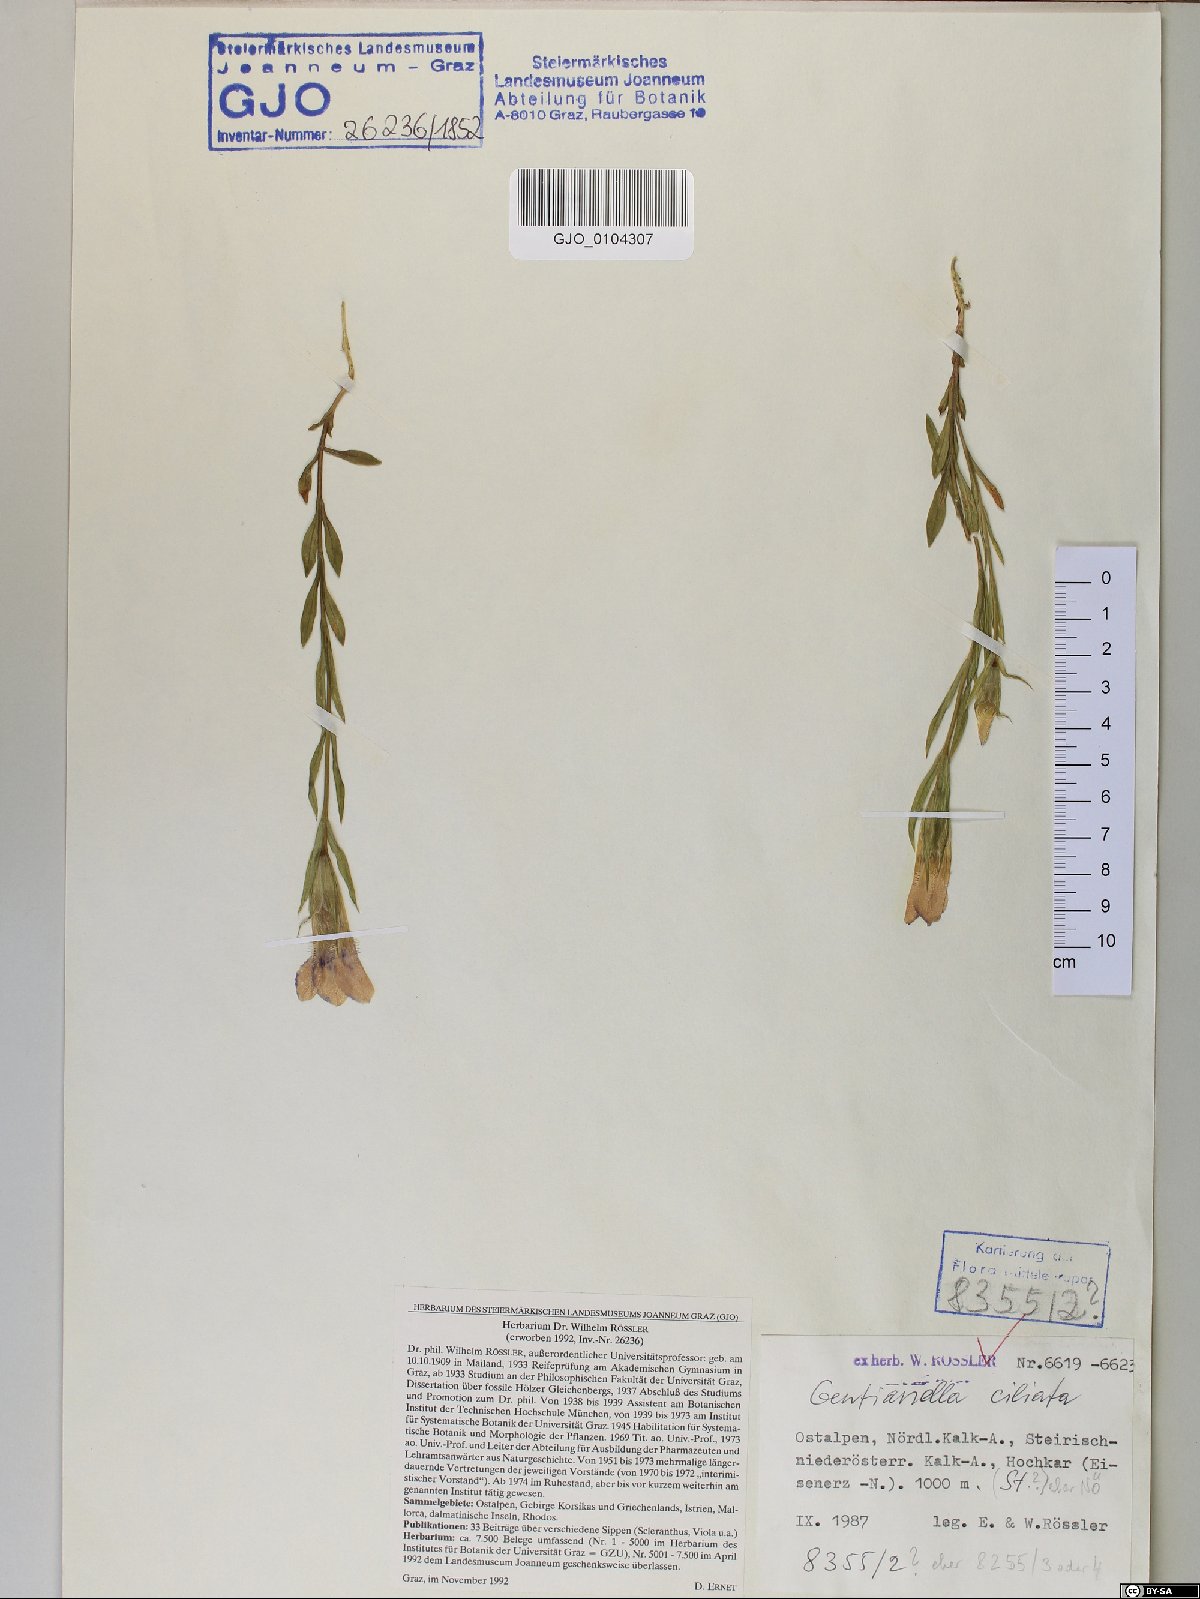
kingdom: Plantae
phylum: Tracheophyta
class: Magnoliopsida
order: Gentianales
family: Gentianaceae
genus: Gentianopsis
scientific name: Gentianopsis ciliata
